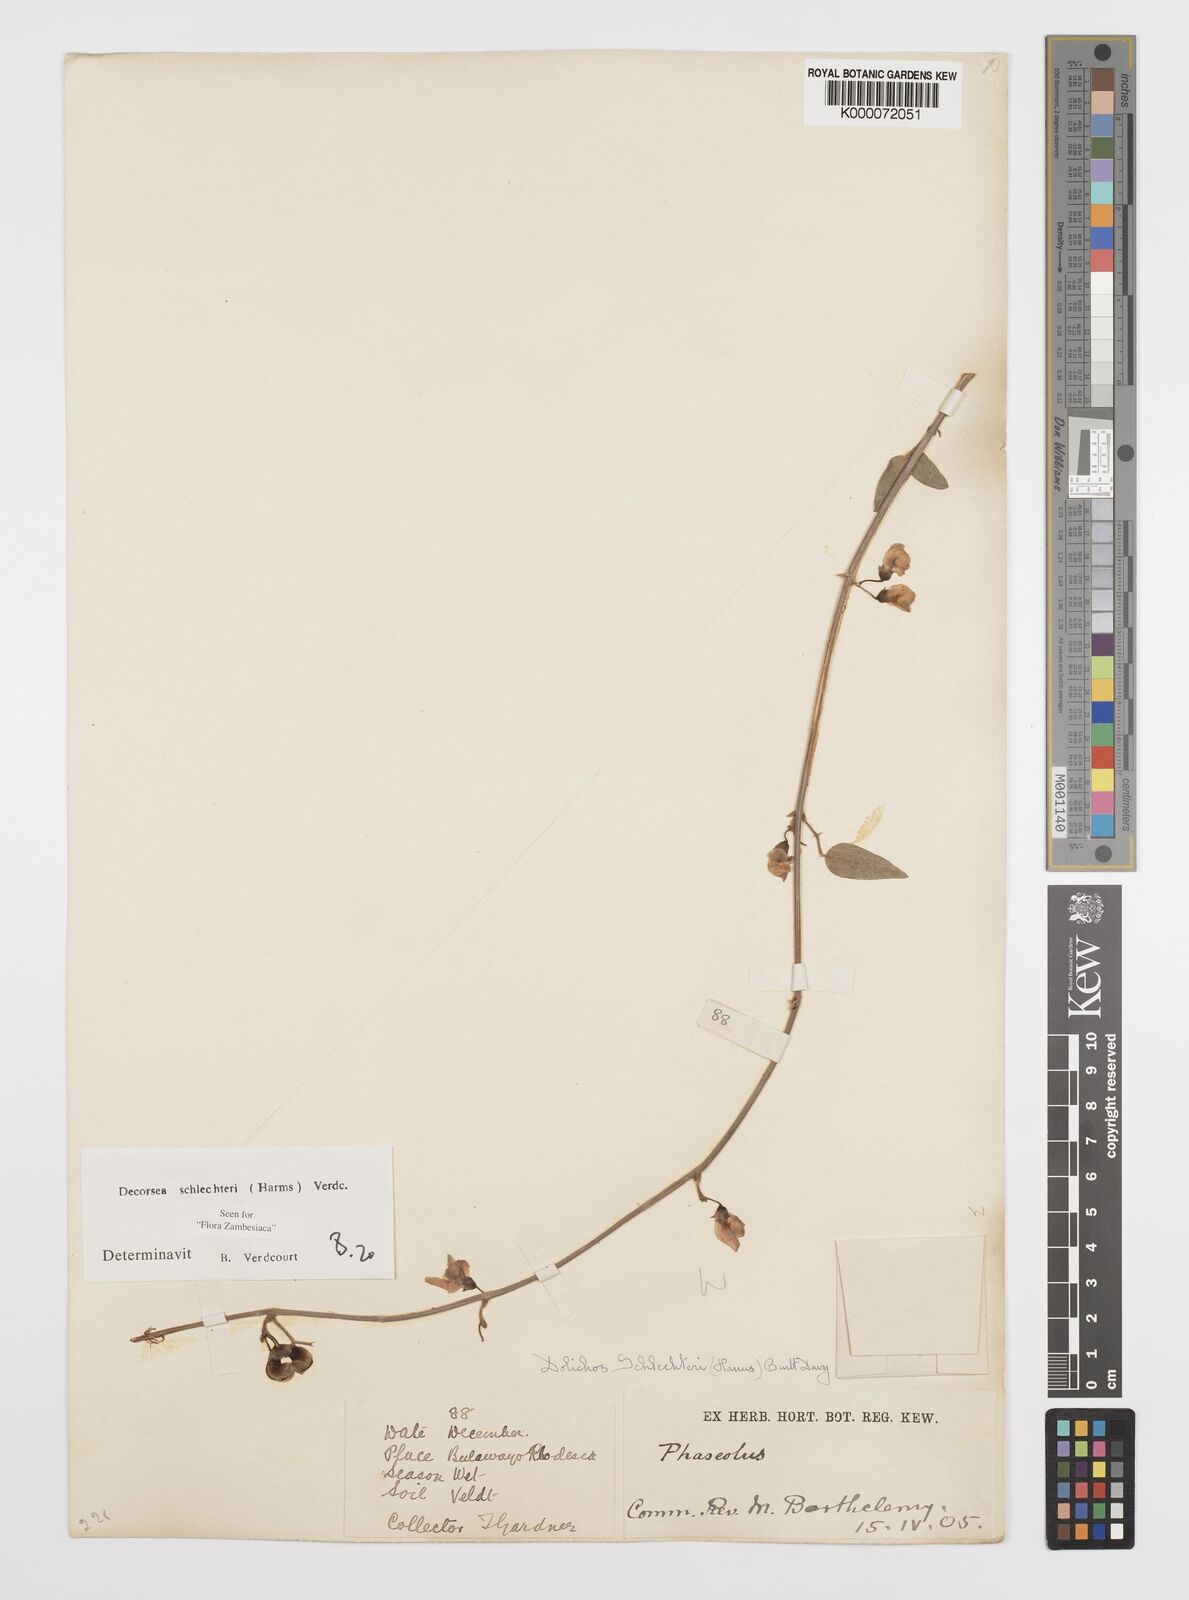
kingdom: Plantae
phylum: Tracheophyta
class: Magnoliopsida
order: Fabales
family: Fabaceae
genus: Decorsea
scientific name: Decorsea schlechteri
